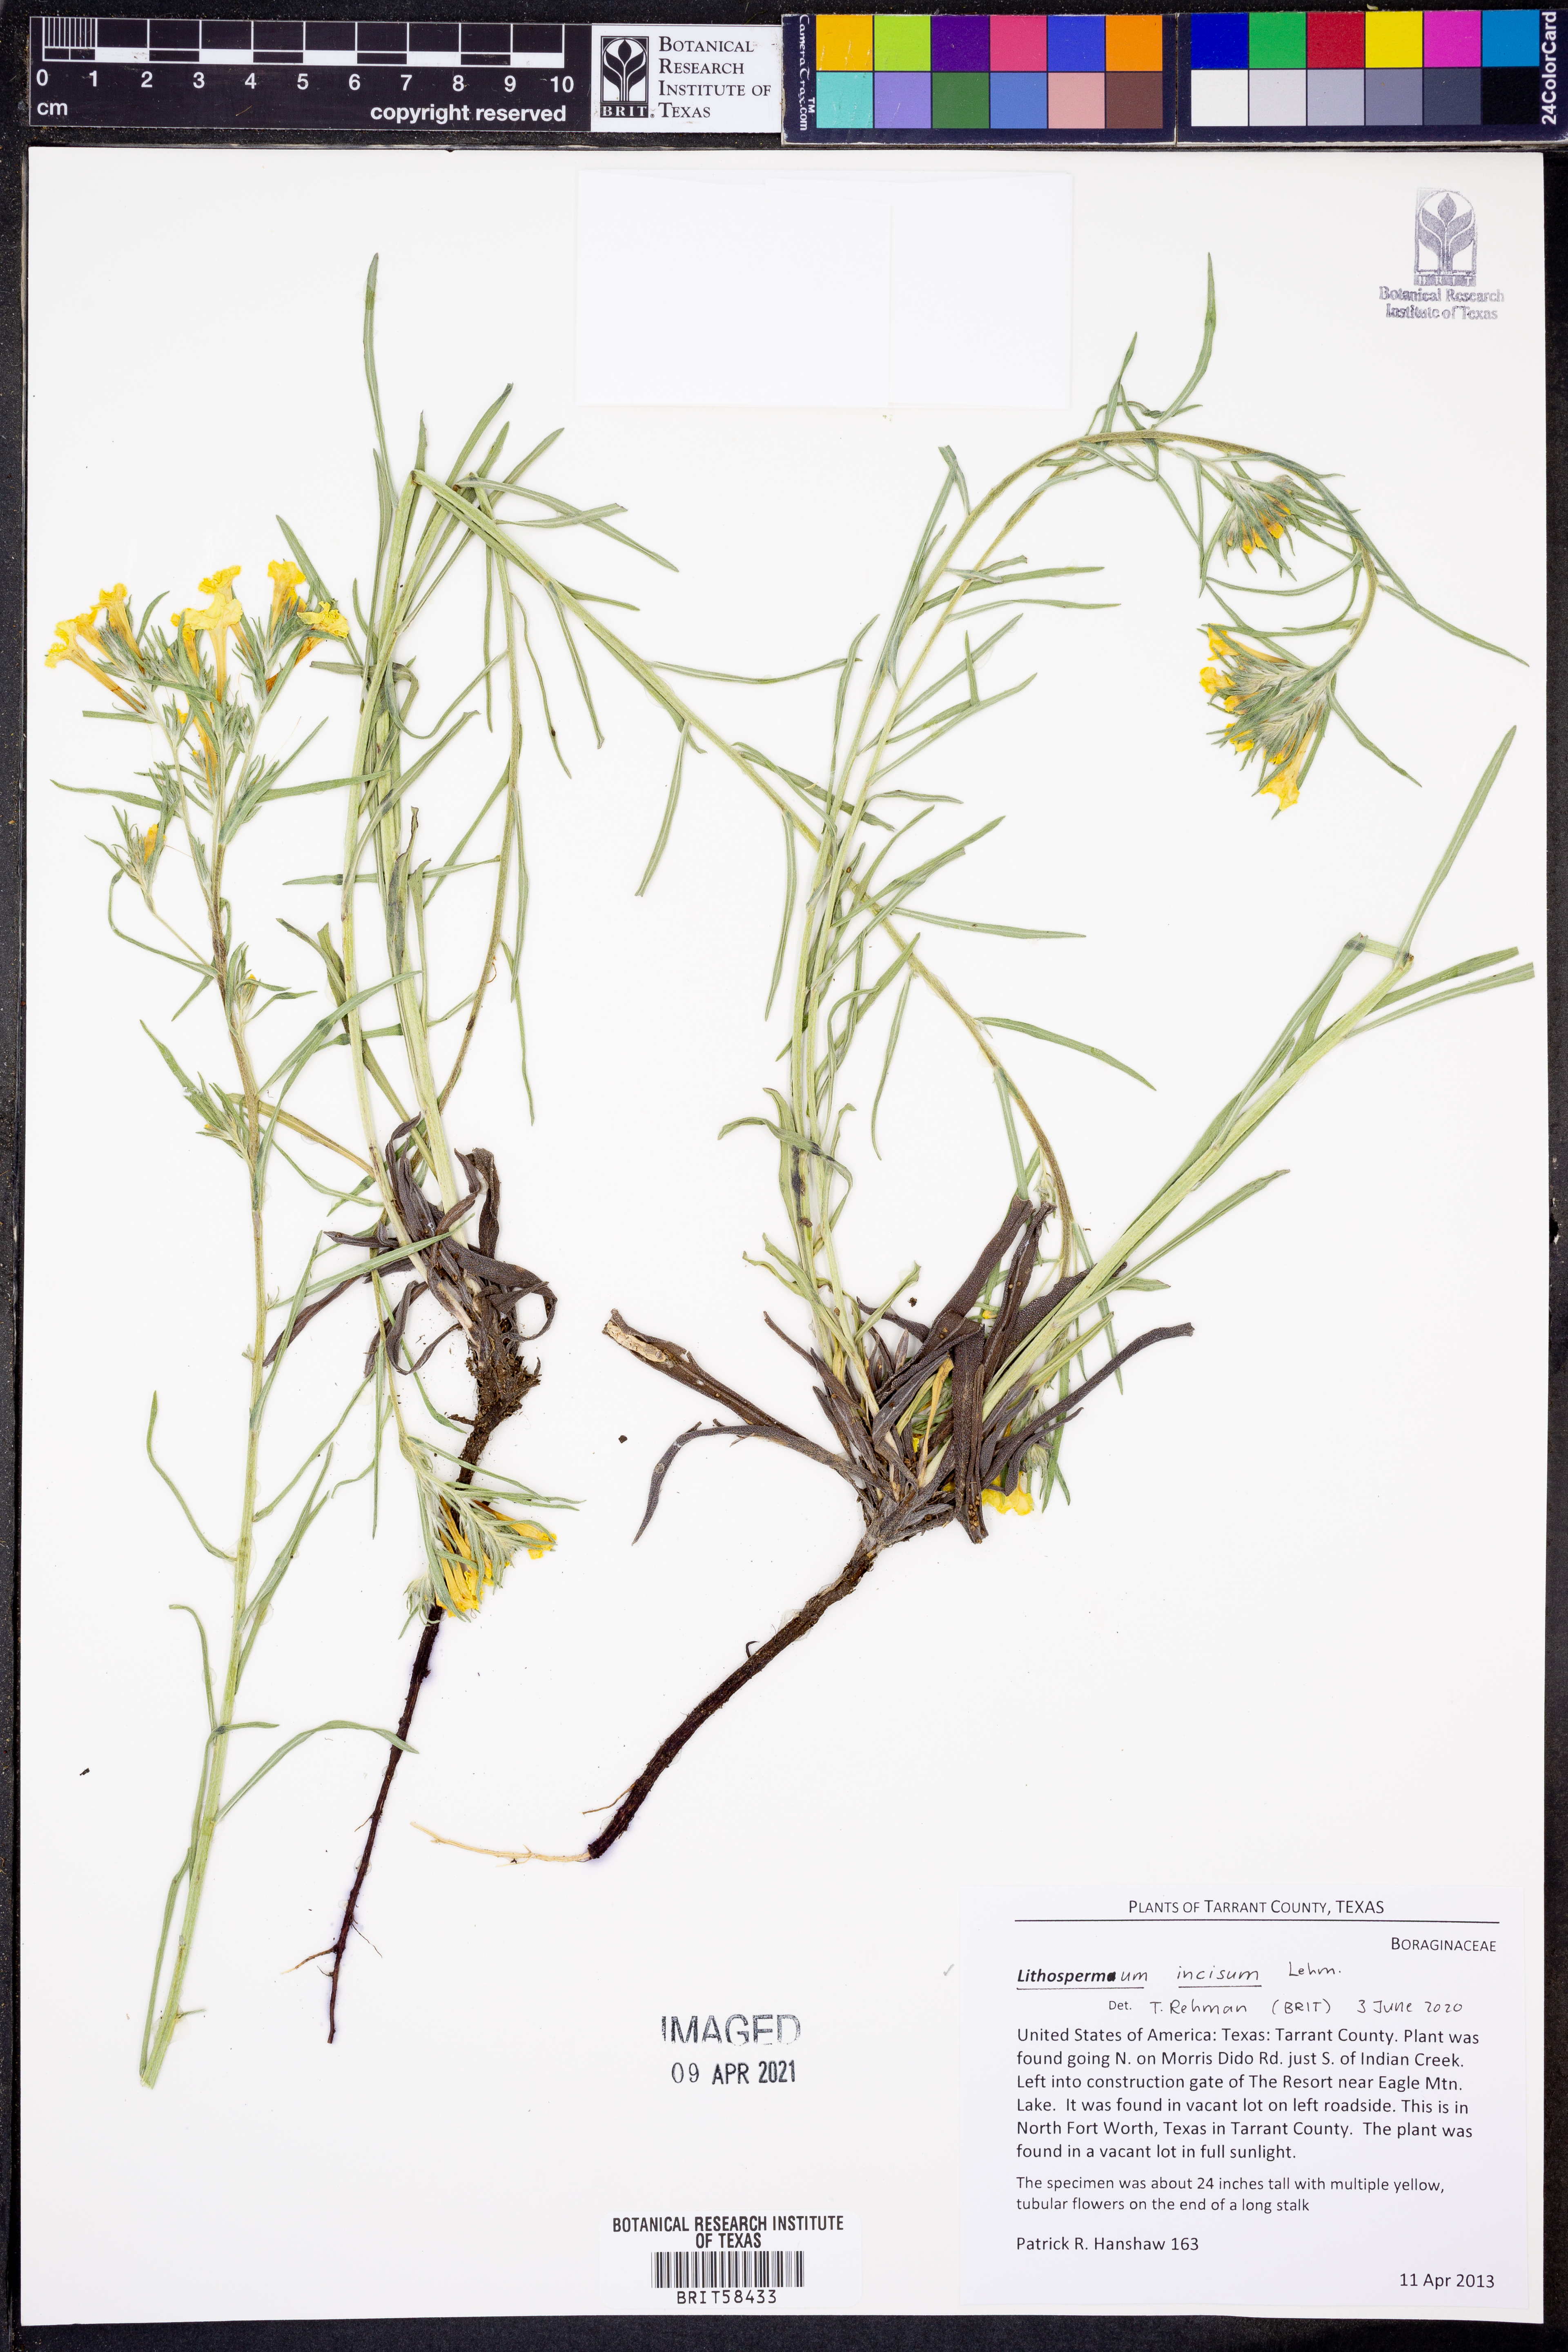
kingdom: Plantae
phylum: Tracheophyta
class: Magnoliopsida
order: Boraginales
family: Boraginaceae
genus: Lithospermum
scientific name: Lithospermum incisum
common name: Fringed gromwell
